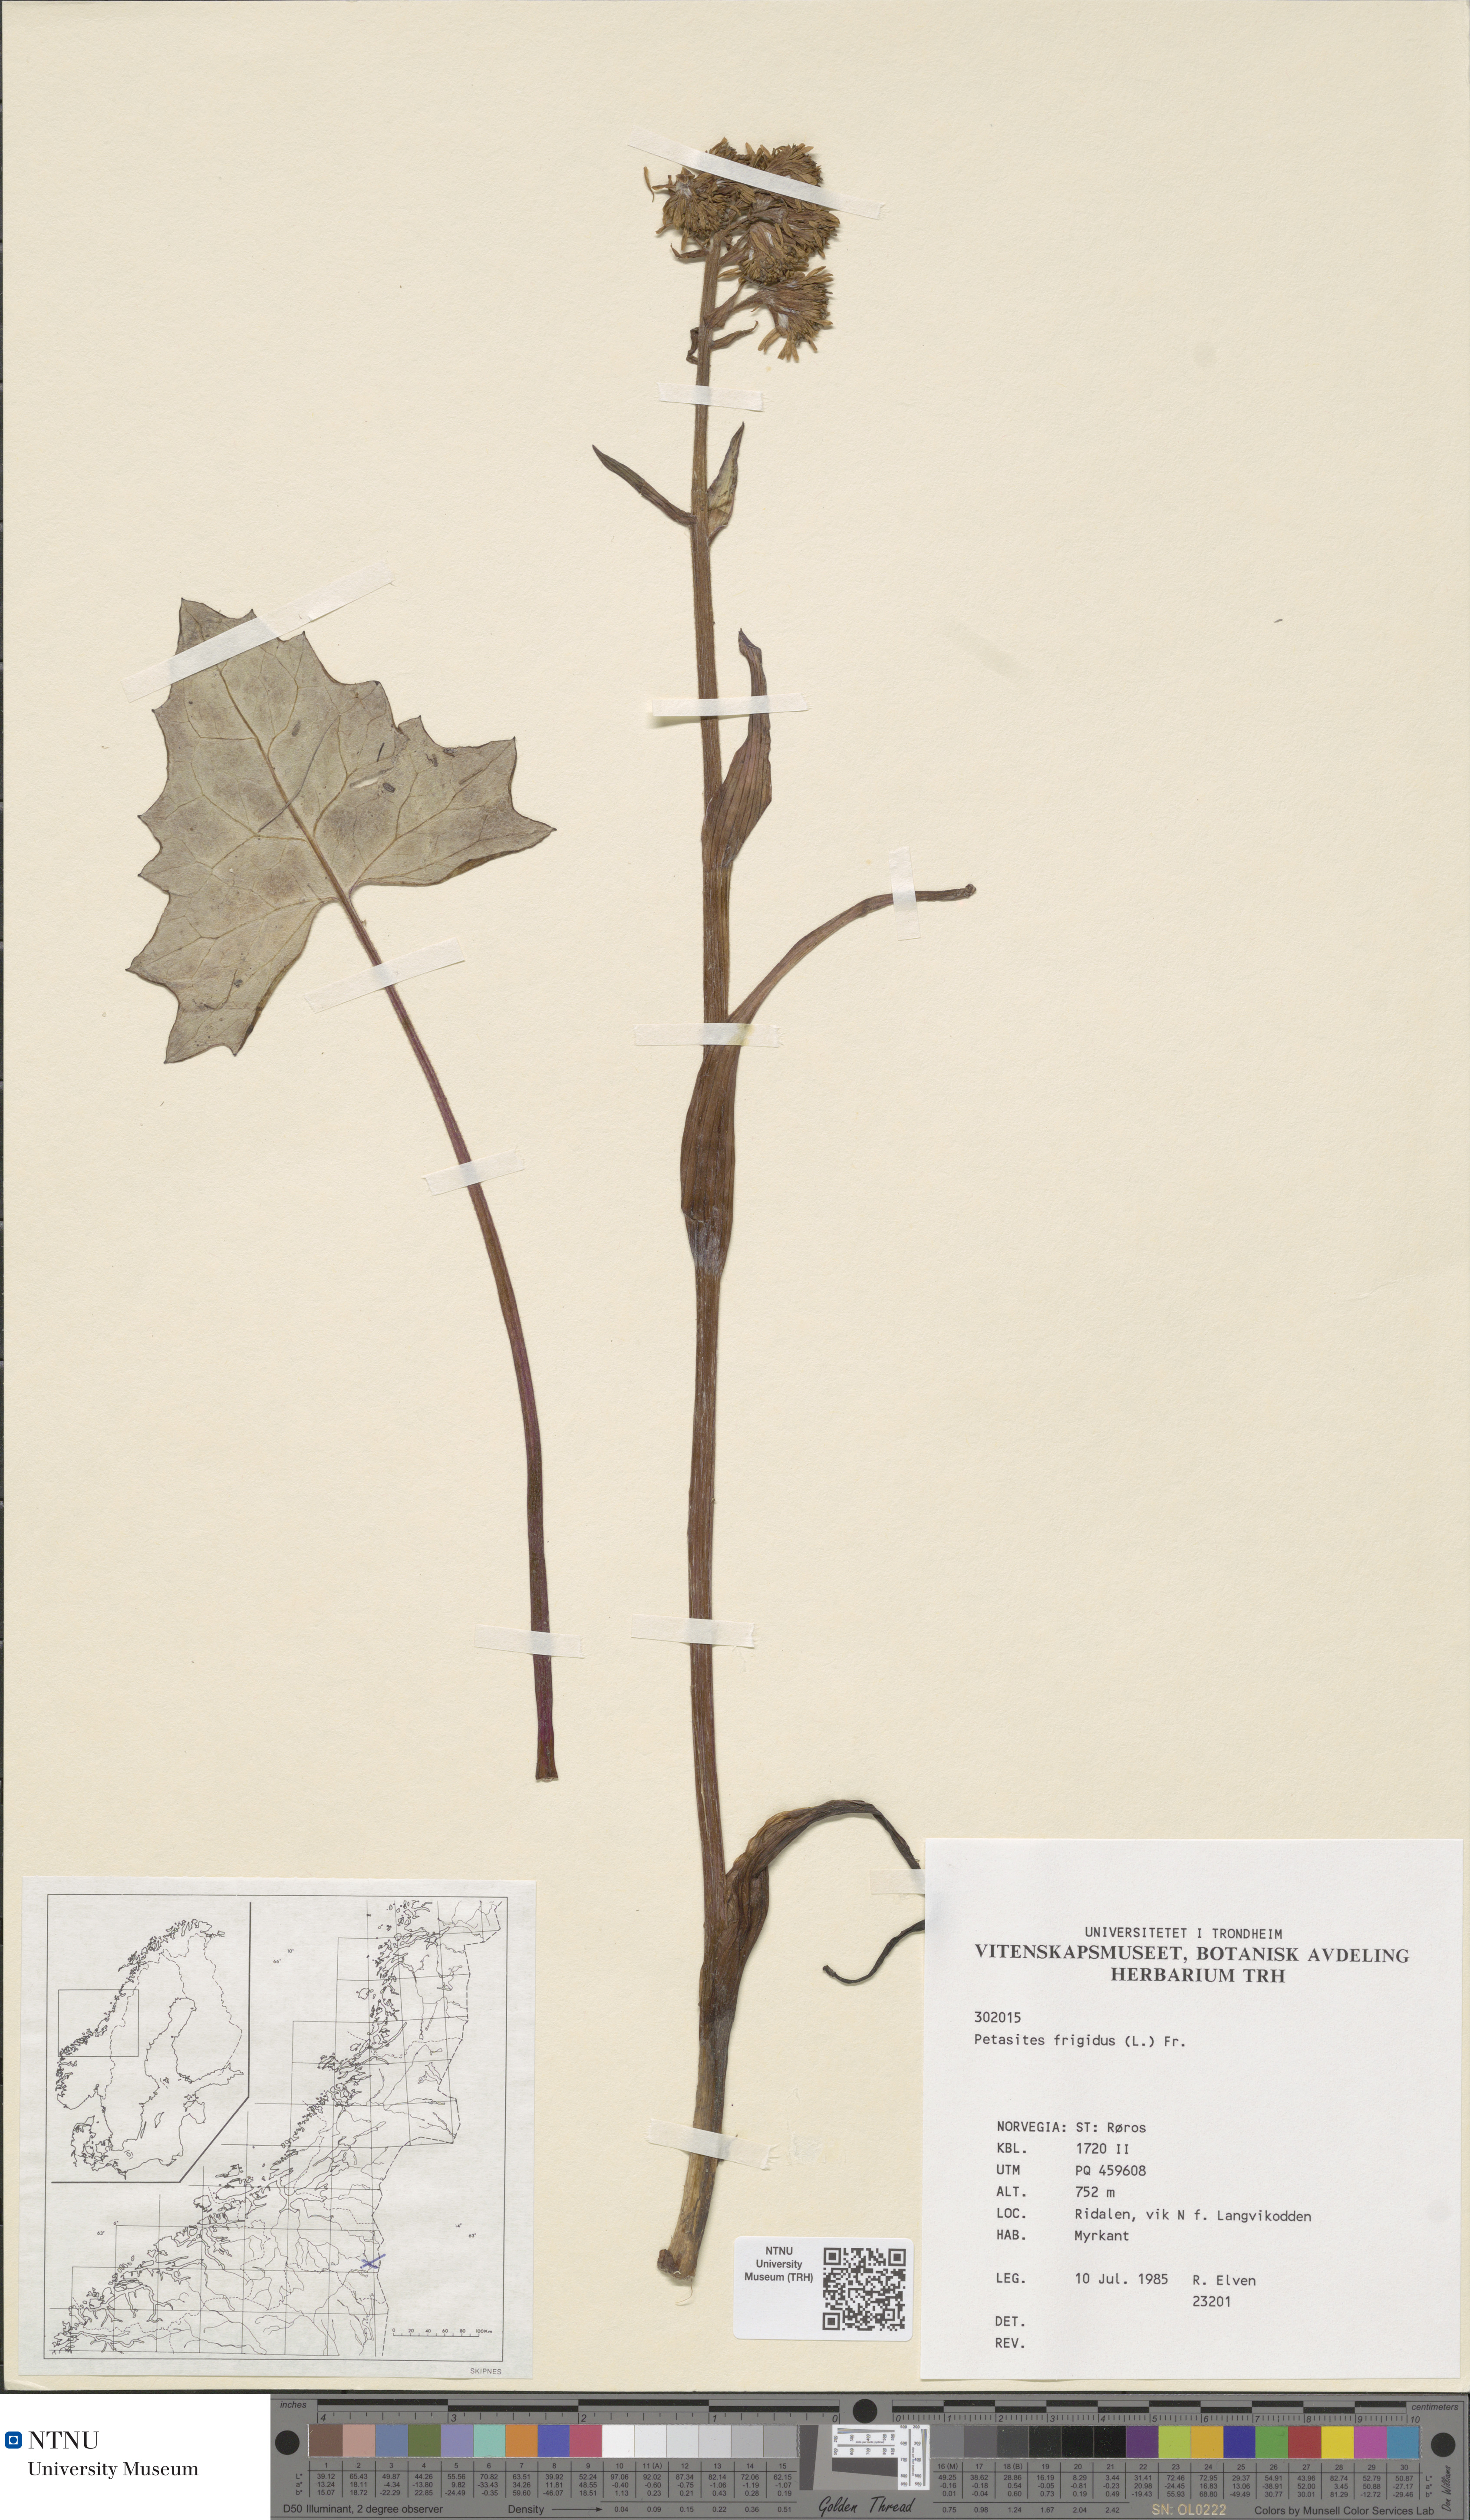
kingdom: Plantae
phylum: Tracheophyta
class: Magnoliopsida
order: Asterales
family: Asteraceae
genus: Petasites
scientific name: Petasites frigidus
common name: Arctic butterbur
